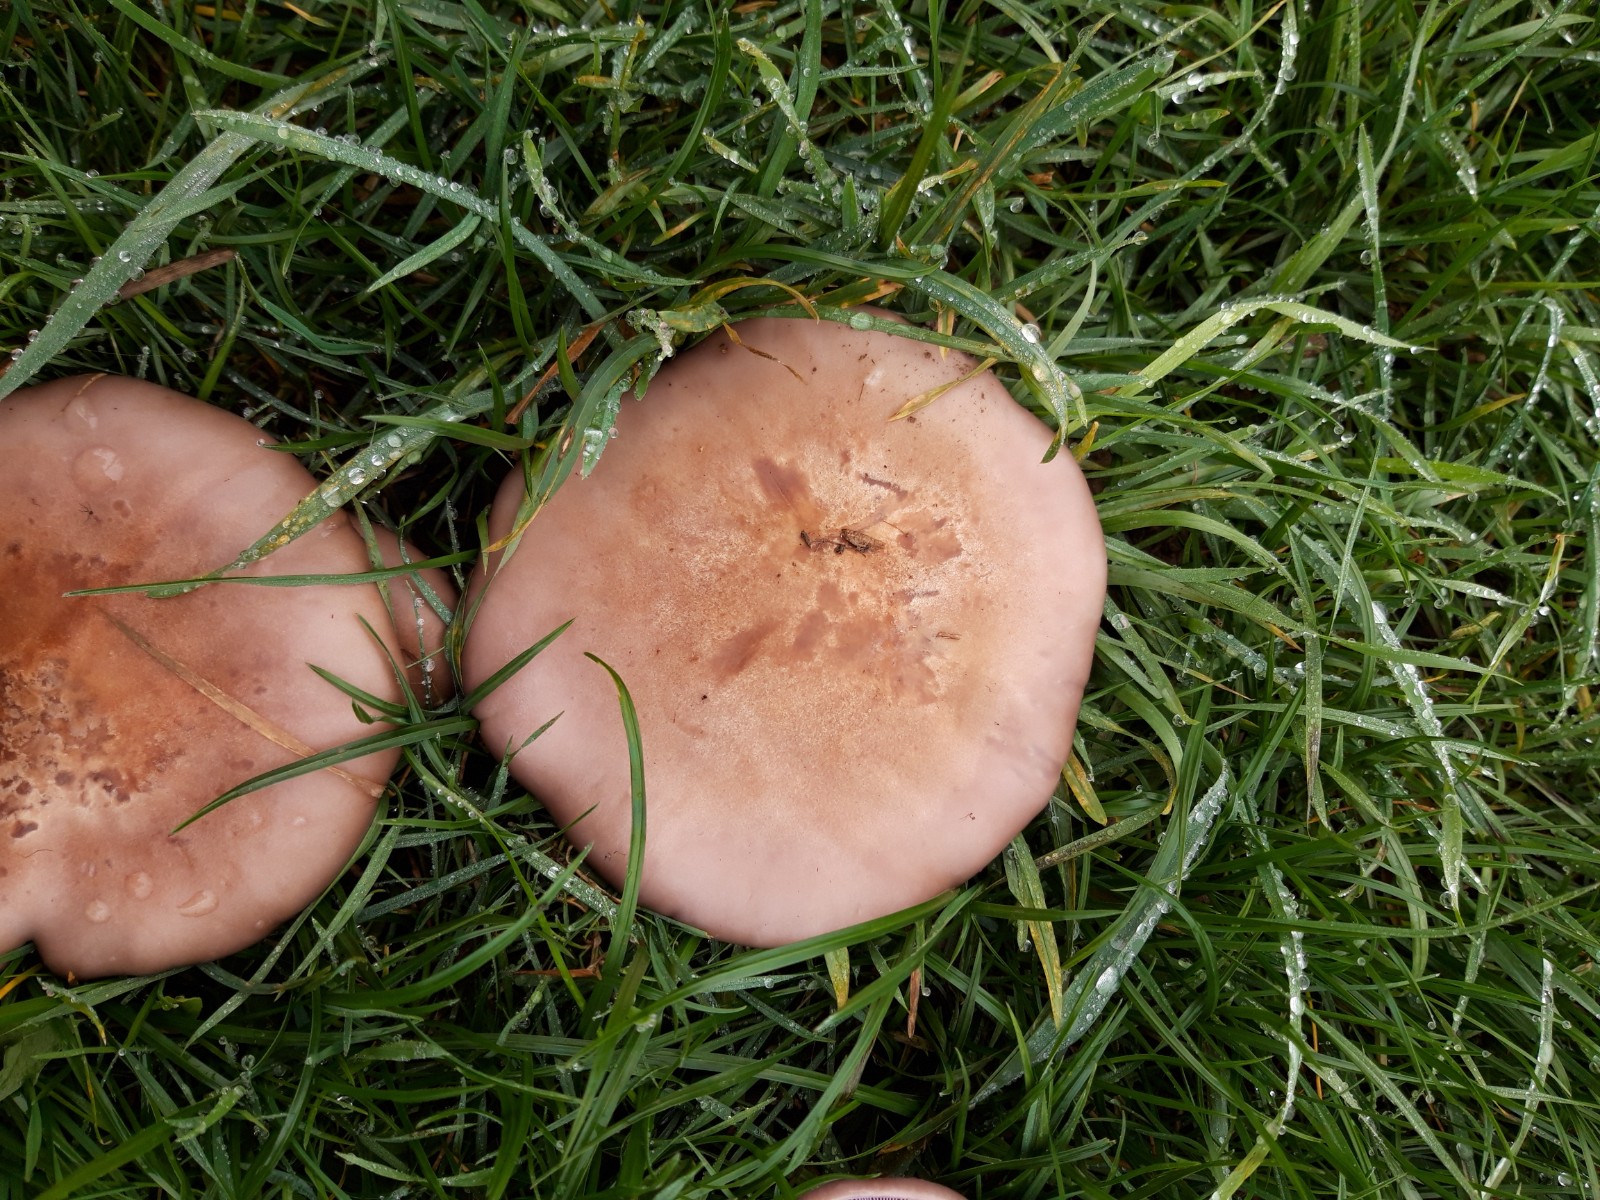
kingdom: Fungi
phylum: Basidiomycota
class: Agaricomycetes
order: Agaricales
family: Tricholomataceae
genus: Lepista
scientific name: Lepista nuda
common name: violet hekseringshat
